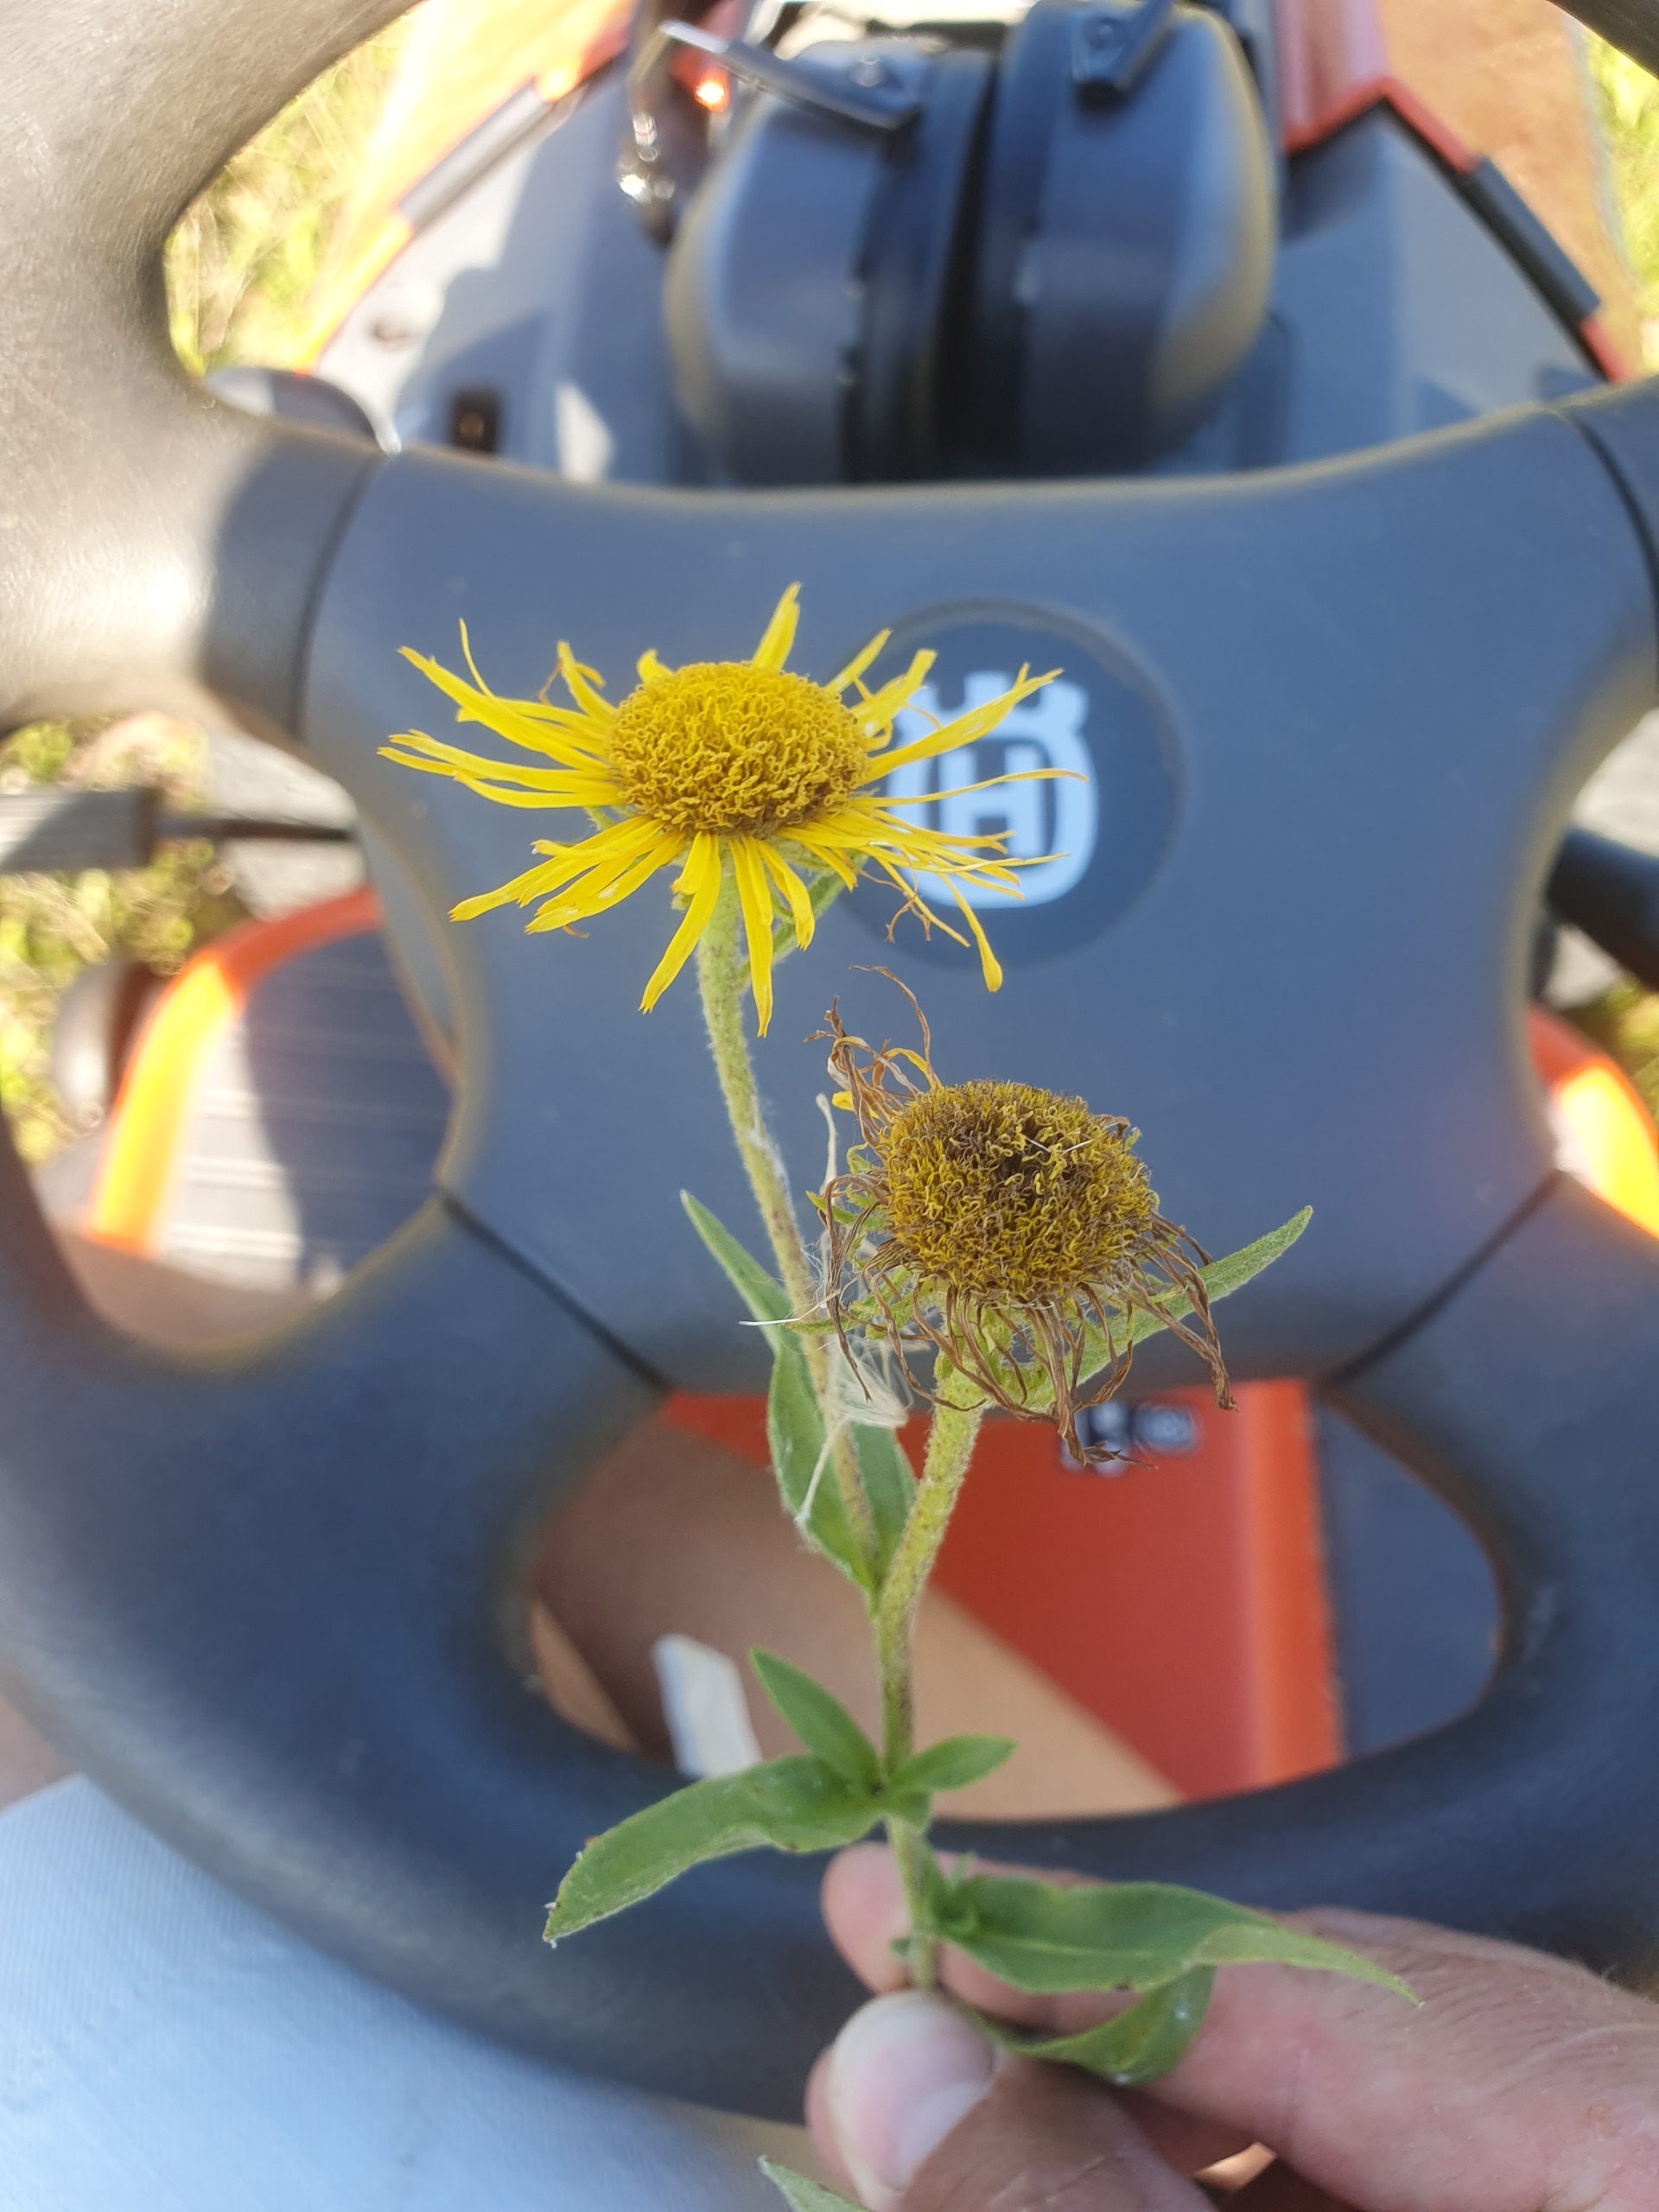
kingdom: Plantae
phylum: Tracheophyta
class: Magnoliopsida
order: Asterales
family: Asteraceae
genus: Pentanema
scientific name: Pentanema britannicum
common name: Soløje-alant
